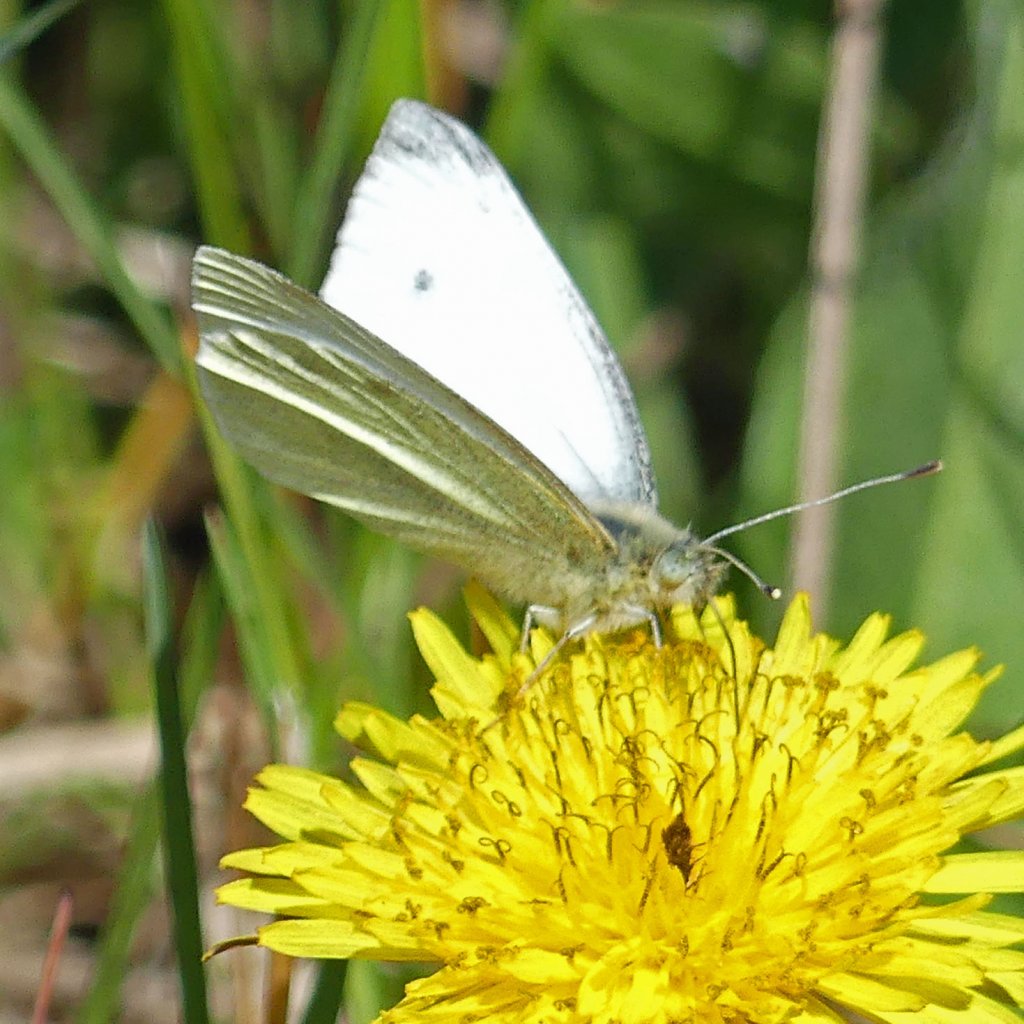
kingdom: Animalia
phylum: Arthropoda
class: Insecta
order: Lepidoptera
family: Pieridae
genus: Pieris
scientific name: Pieris rapae
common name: Cabbage White
